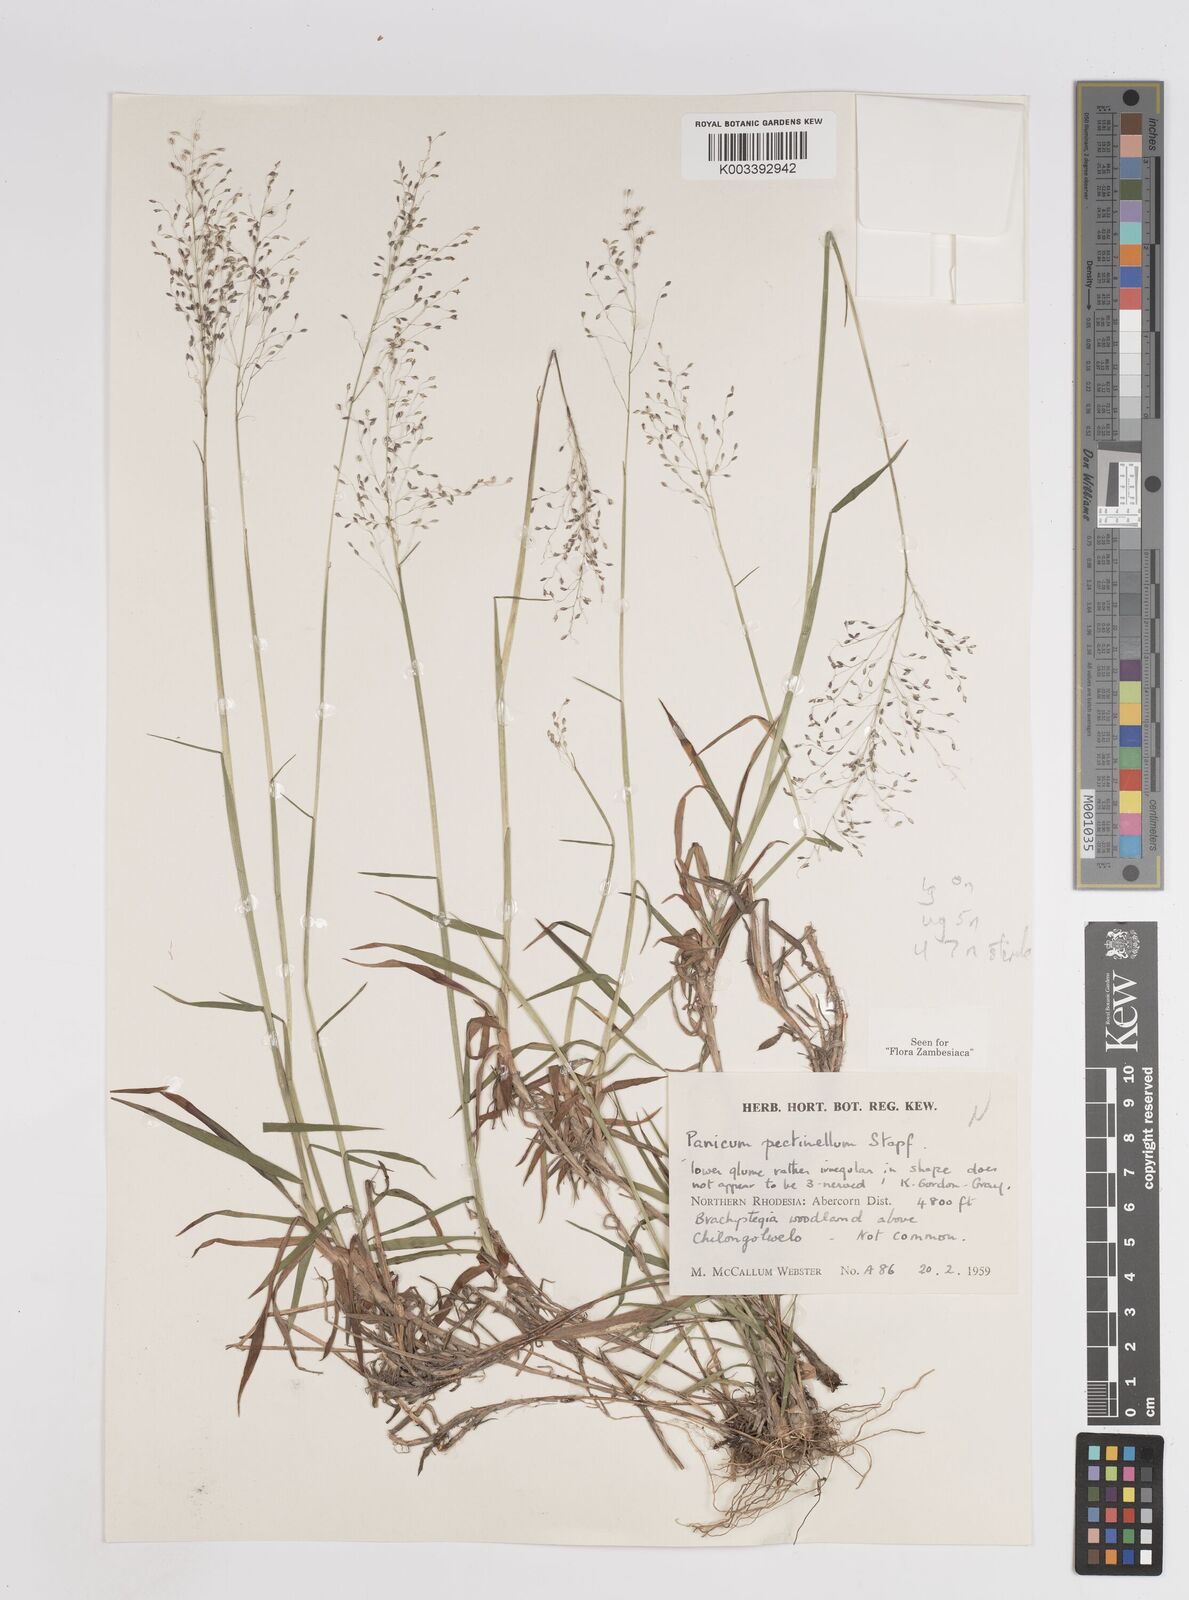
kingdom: Plantae
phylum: Tracheophyta
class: Liliopsida
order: Poales
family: Poaceae
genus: Adenochloa
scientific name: Adenochloa pectinella
